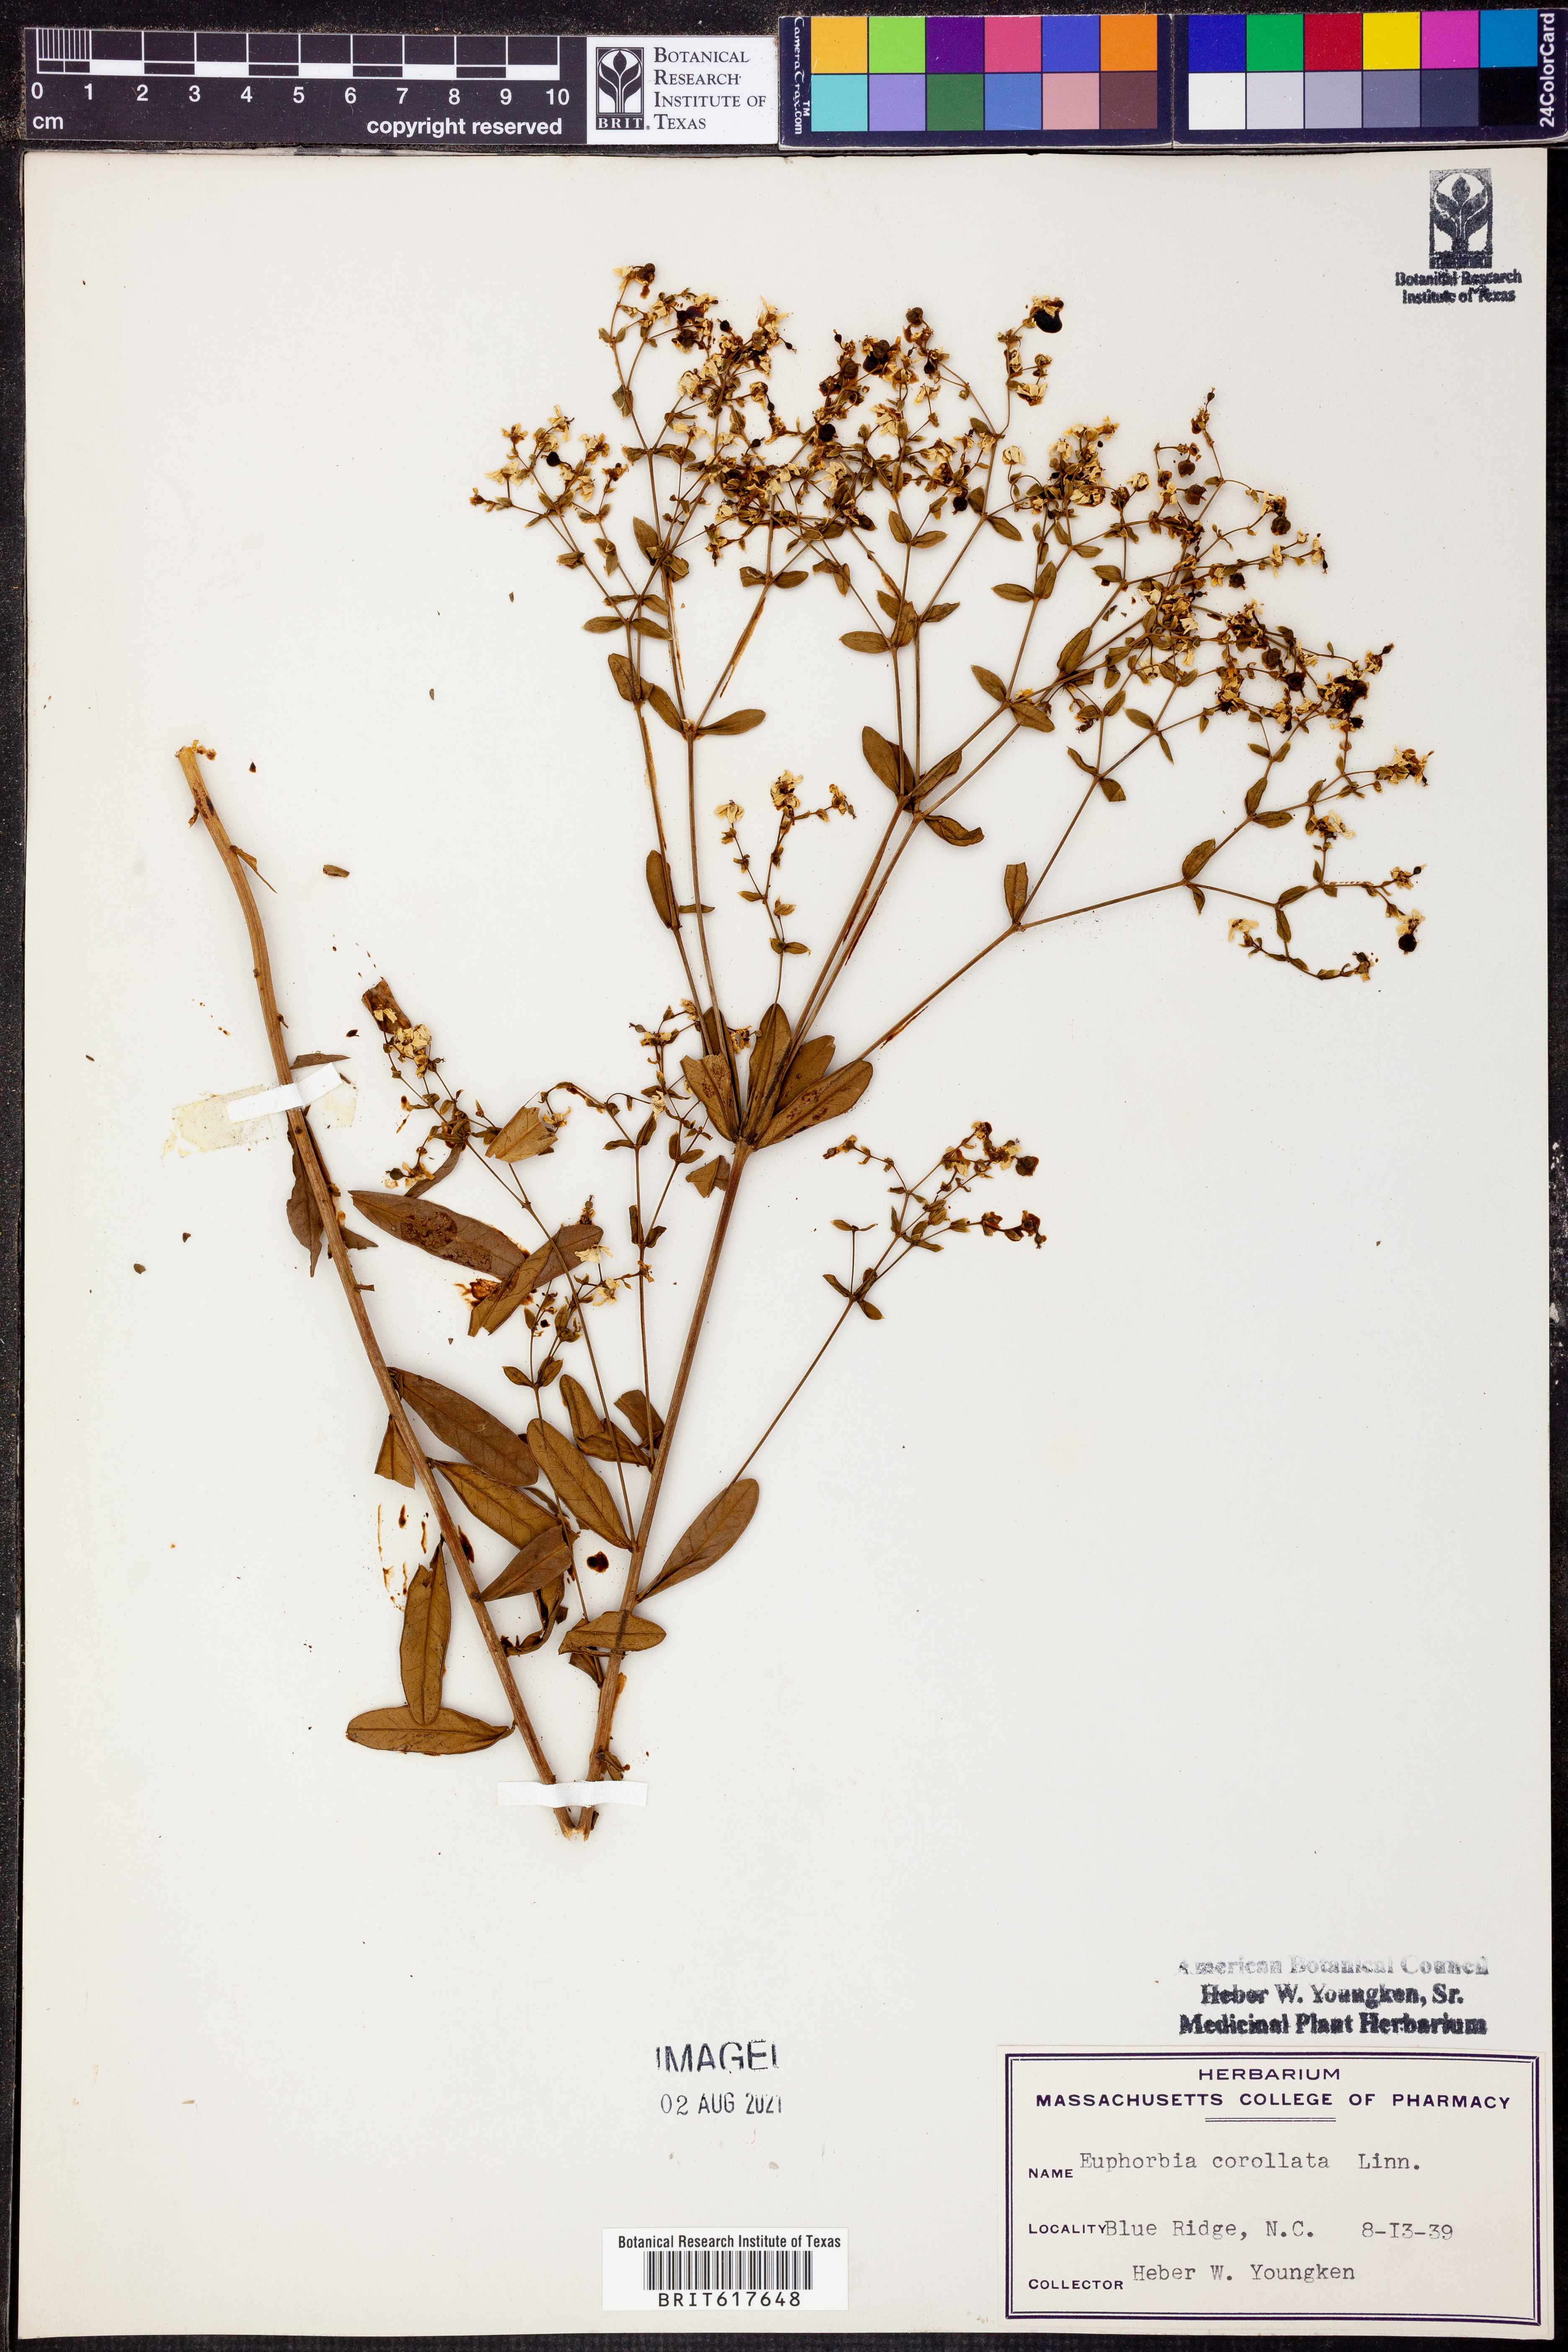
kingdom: Plantae
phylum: Tracheophyta
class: Magnoliopsida
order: Malpighiales
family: Euphorbiaceae
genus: Euphorbia
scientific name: Euphorbia corollata
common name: Flowering spurge
